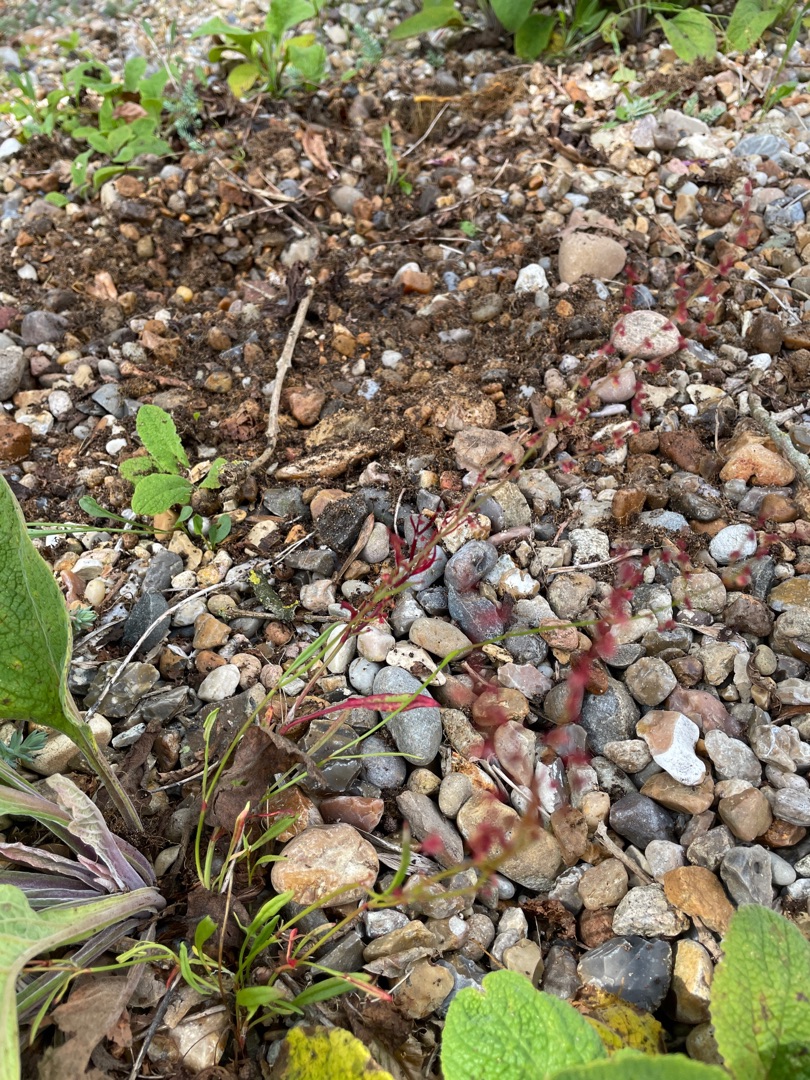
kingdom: Plantae
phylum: Tracheophyta
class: Magnoliopsida
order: Caryophyllales
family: Polygonaceae
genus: Rumex
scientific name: Rumex acetosella
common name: Rødknæ
